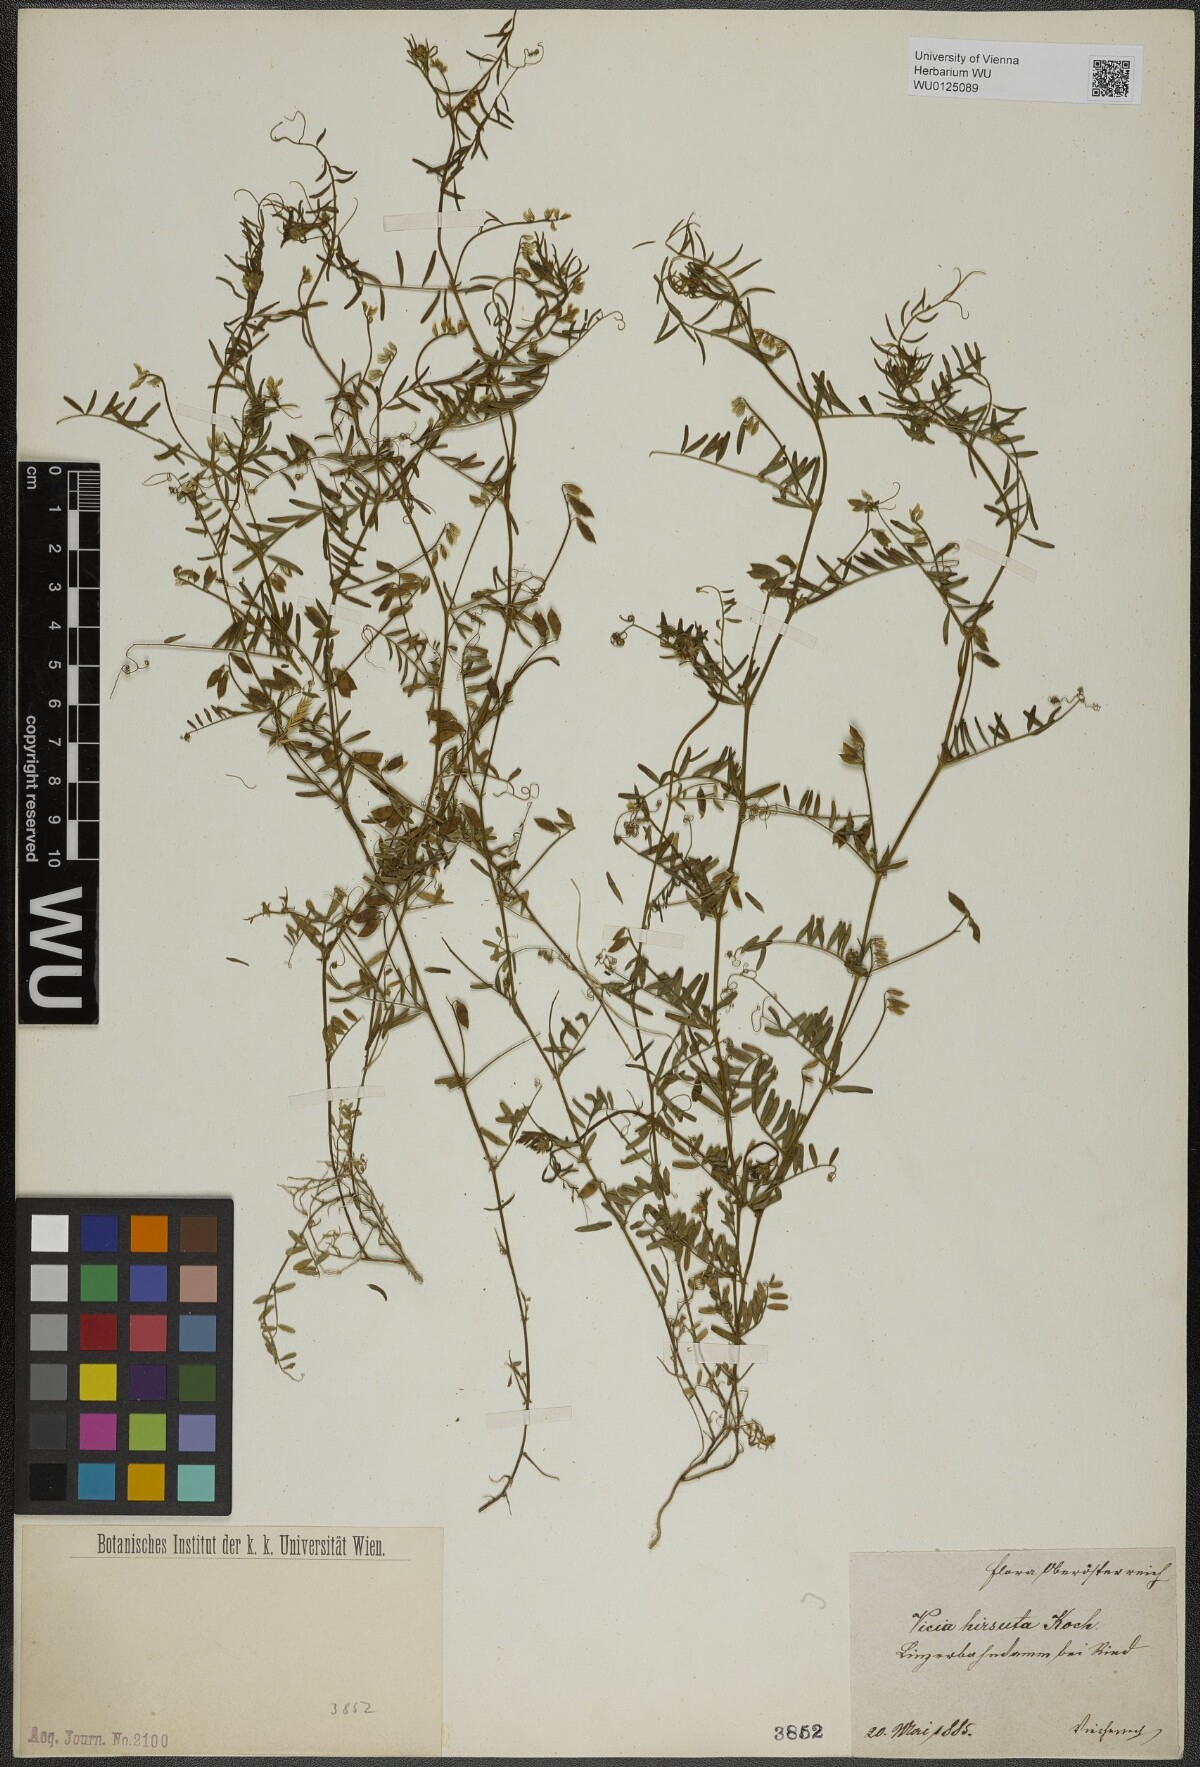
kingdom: Plantae
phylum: Tracheophyta
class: Magnoliopsida
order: Fabales
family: Fabaceae
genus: Vicia
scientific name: Vicia hirsuta
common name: Tiny vetch
